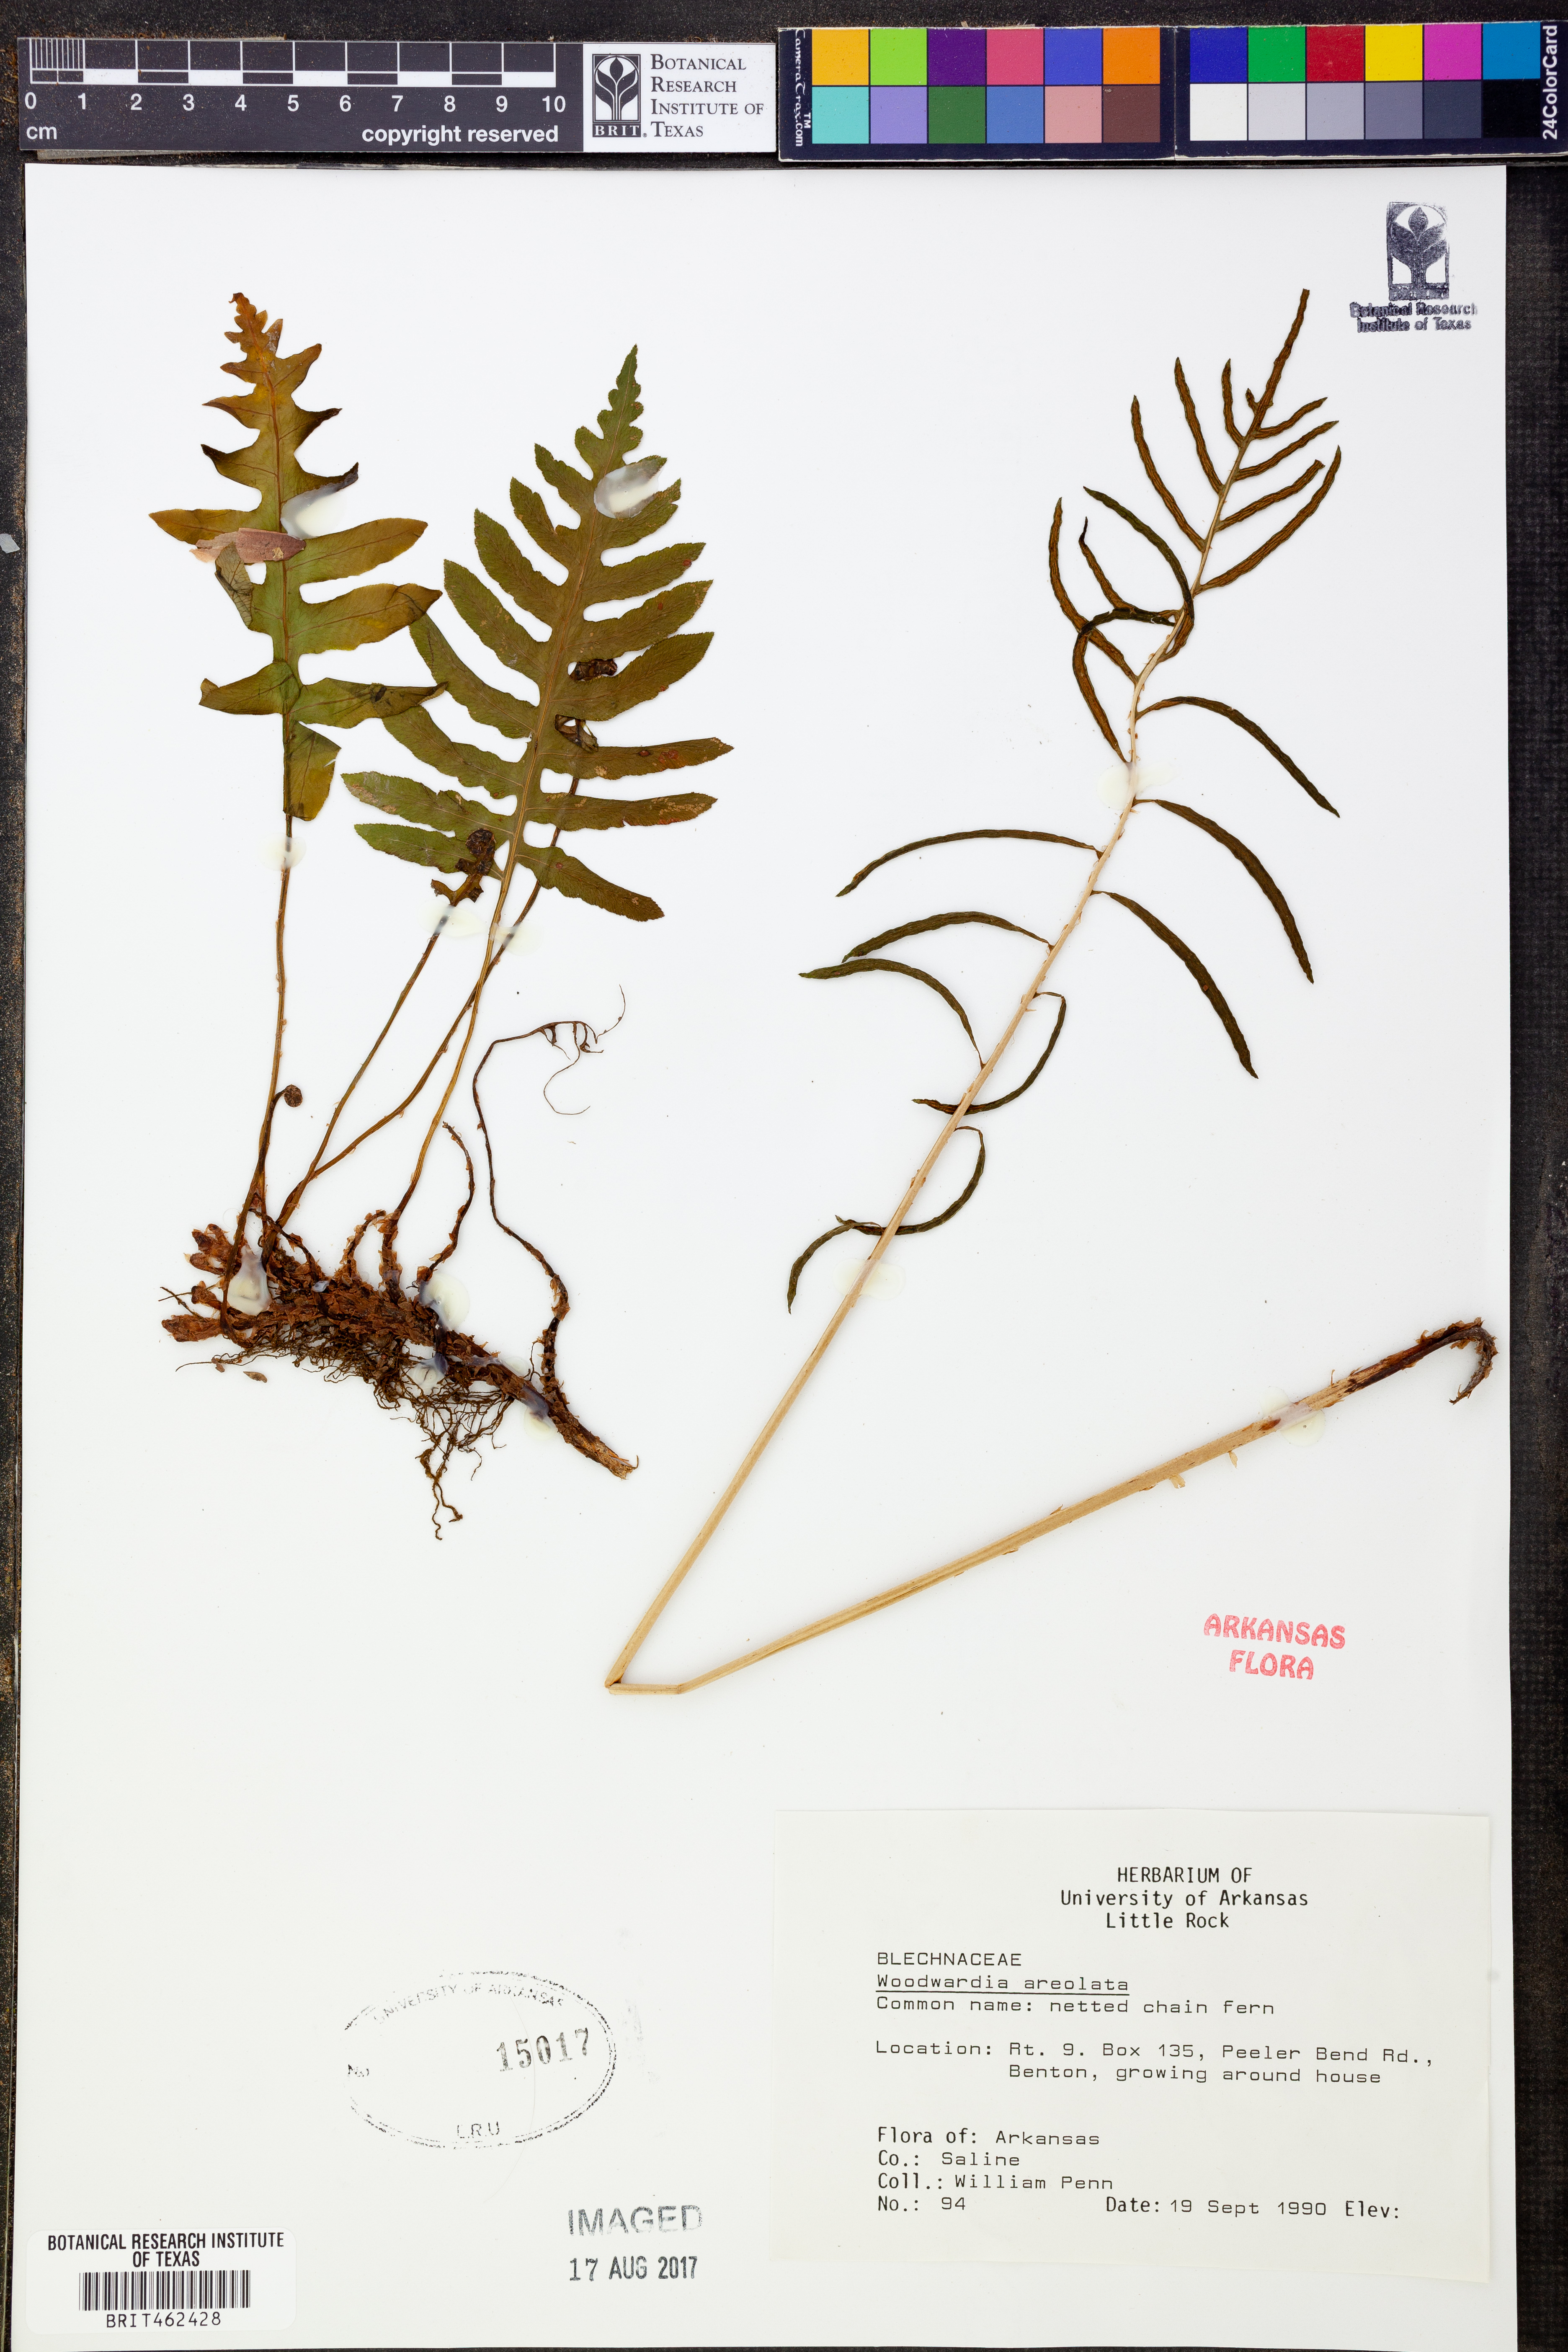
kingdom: Plantae
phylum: Tracheophyta
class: Polypodiopsida
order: Polypodiales
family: Blechnaceae
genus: Lorinseria
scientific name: Lorinseria areolata
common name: Dwarf chain fern
